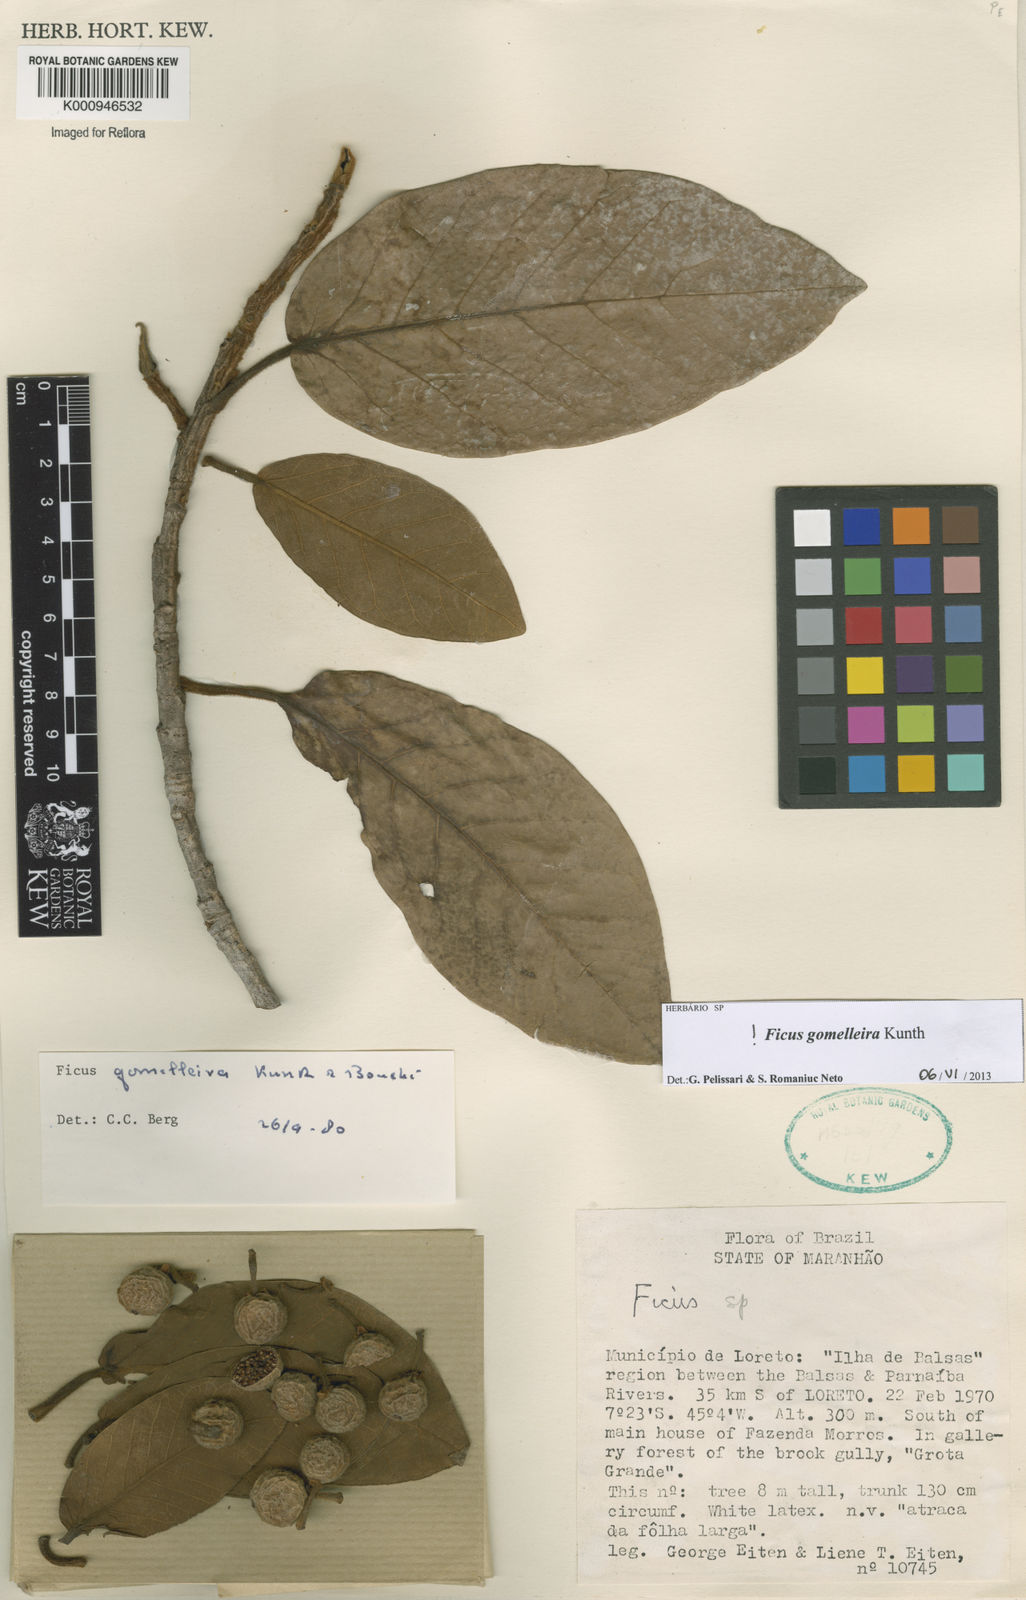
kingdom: Plantae
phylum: Tracheophyta
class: Magnoliopsida
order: Rosales
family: Moraceae
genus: Ficus
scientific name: Ficus gomelleira
